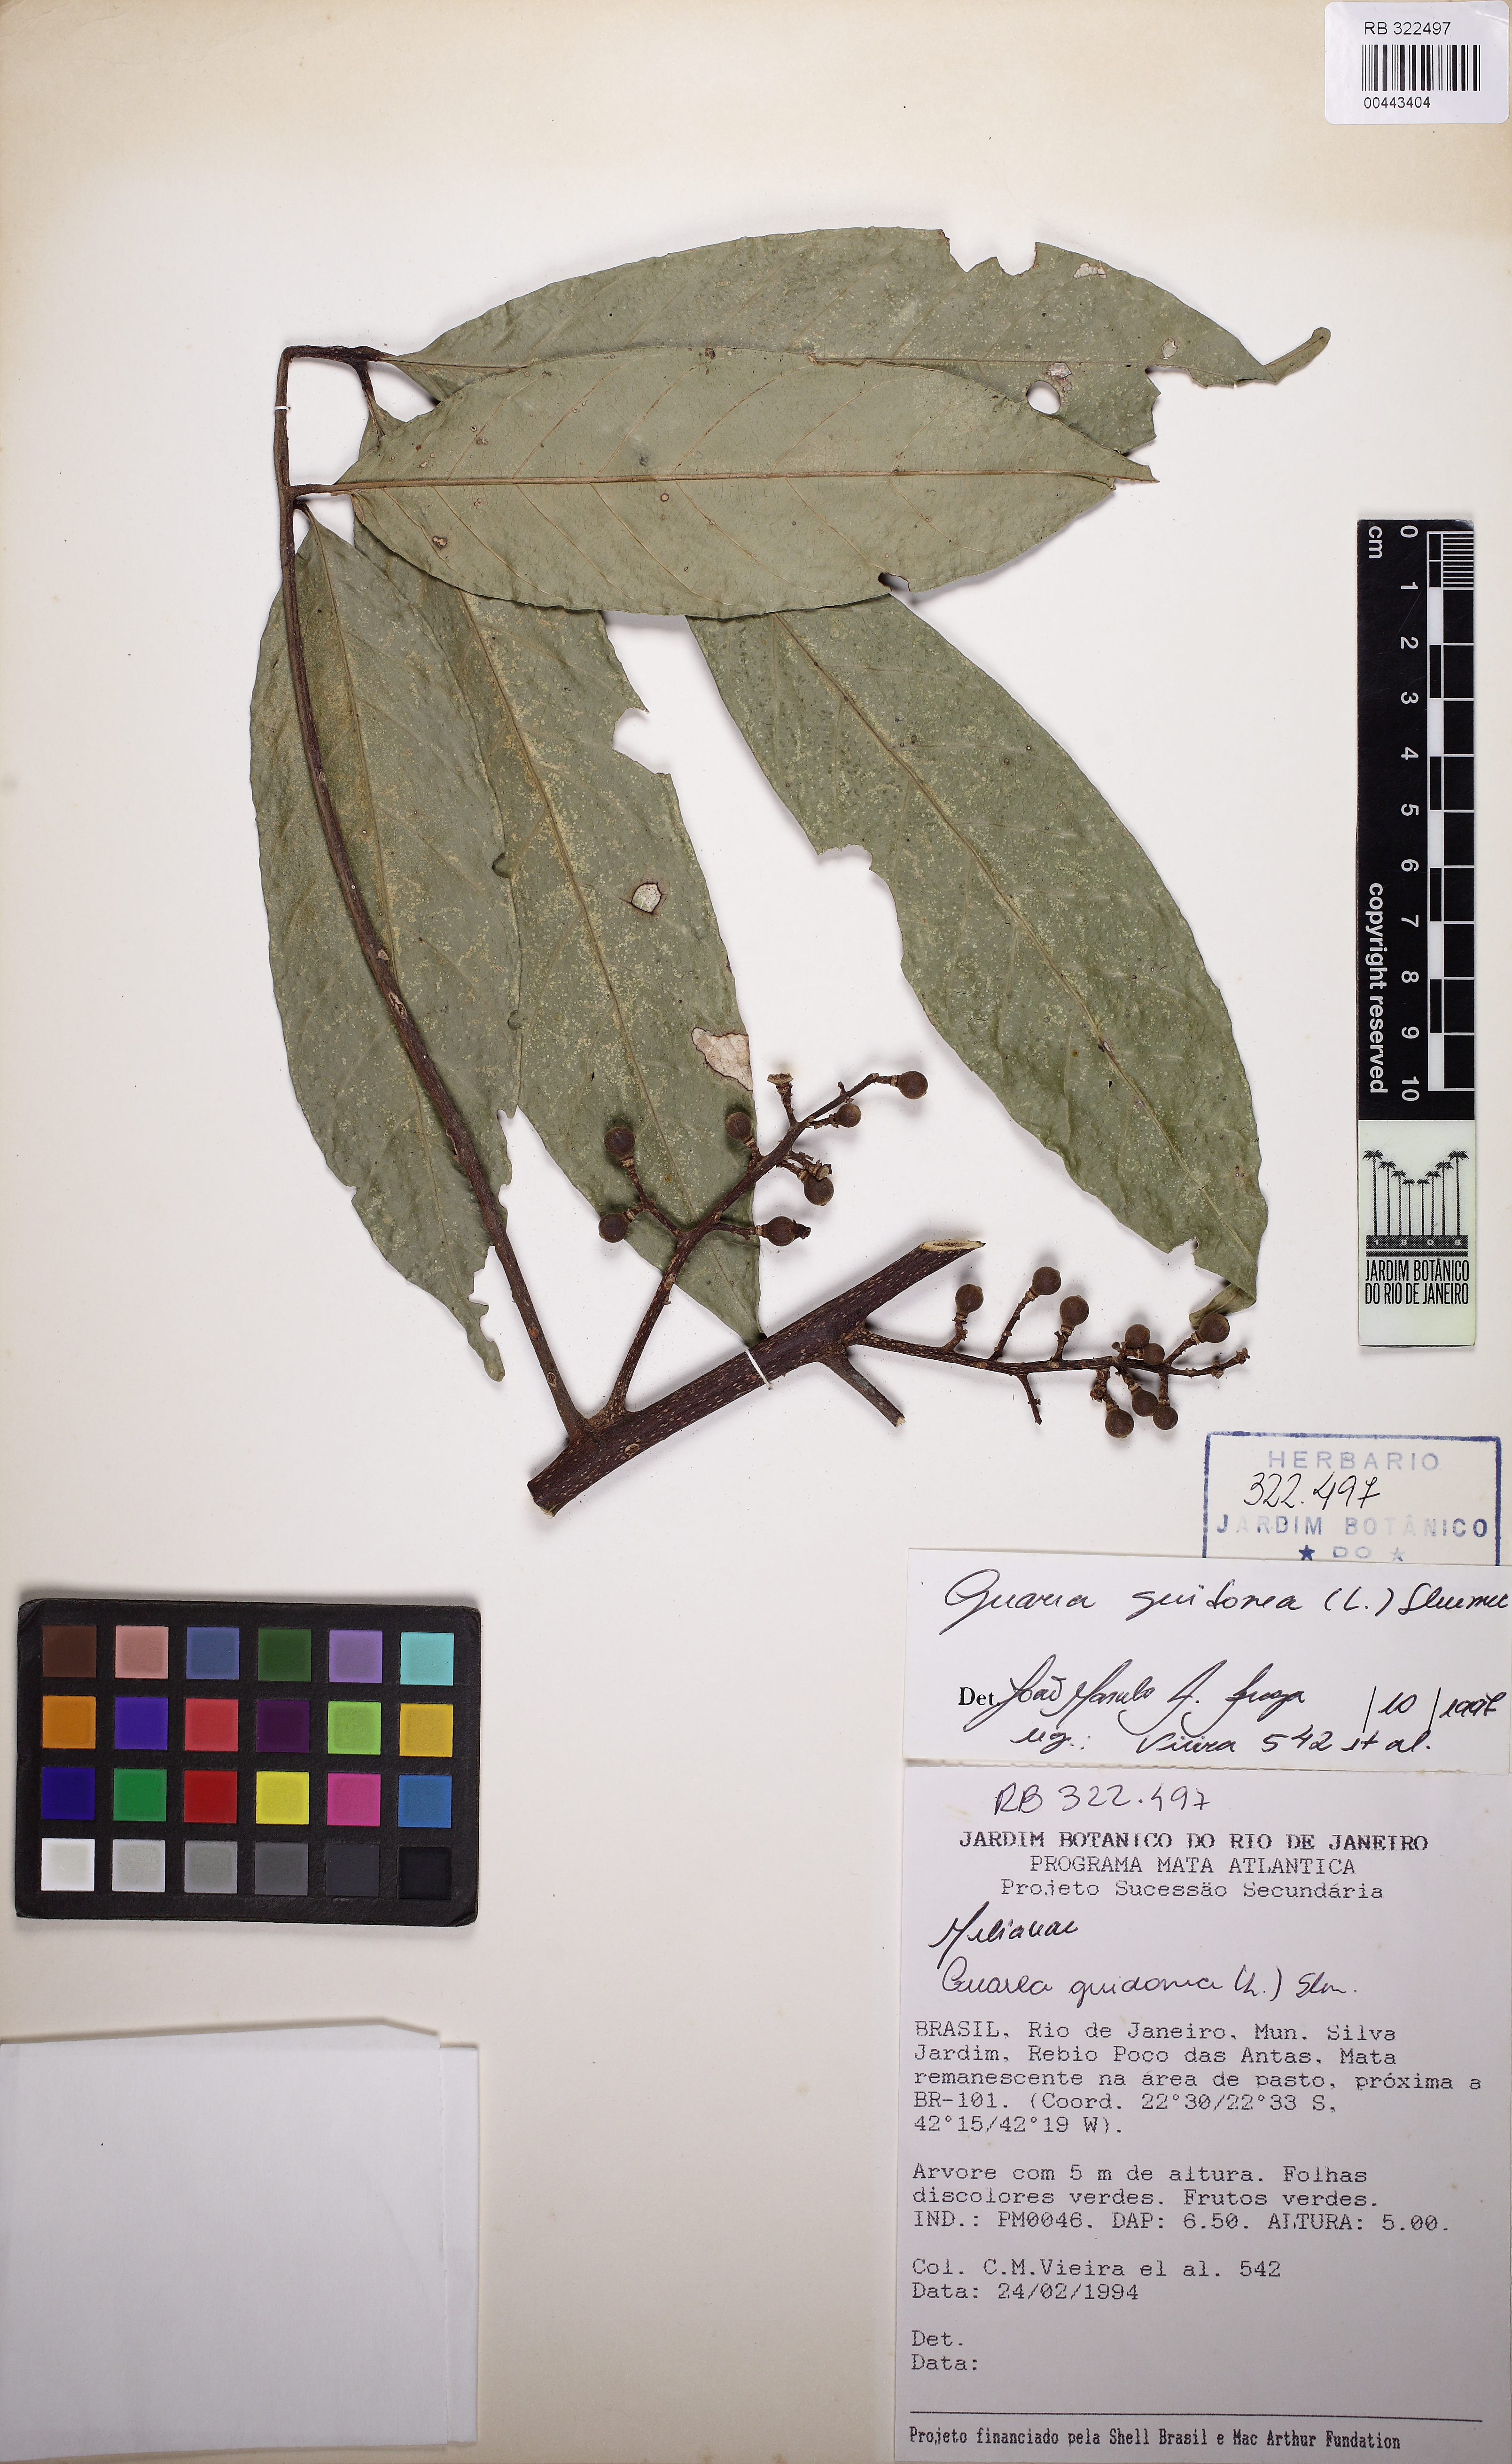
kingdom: Plantae
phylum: Tracheophyta
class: Magnoliopsida
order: Sapindales
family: Meliaceae
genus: Guarea
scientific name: Guarea guidonia
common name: American muskwood
